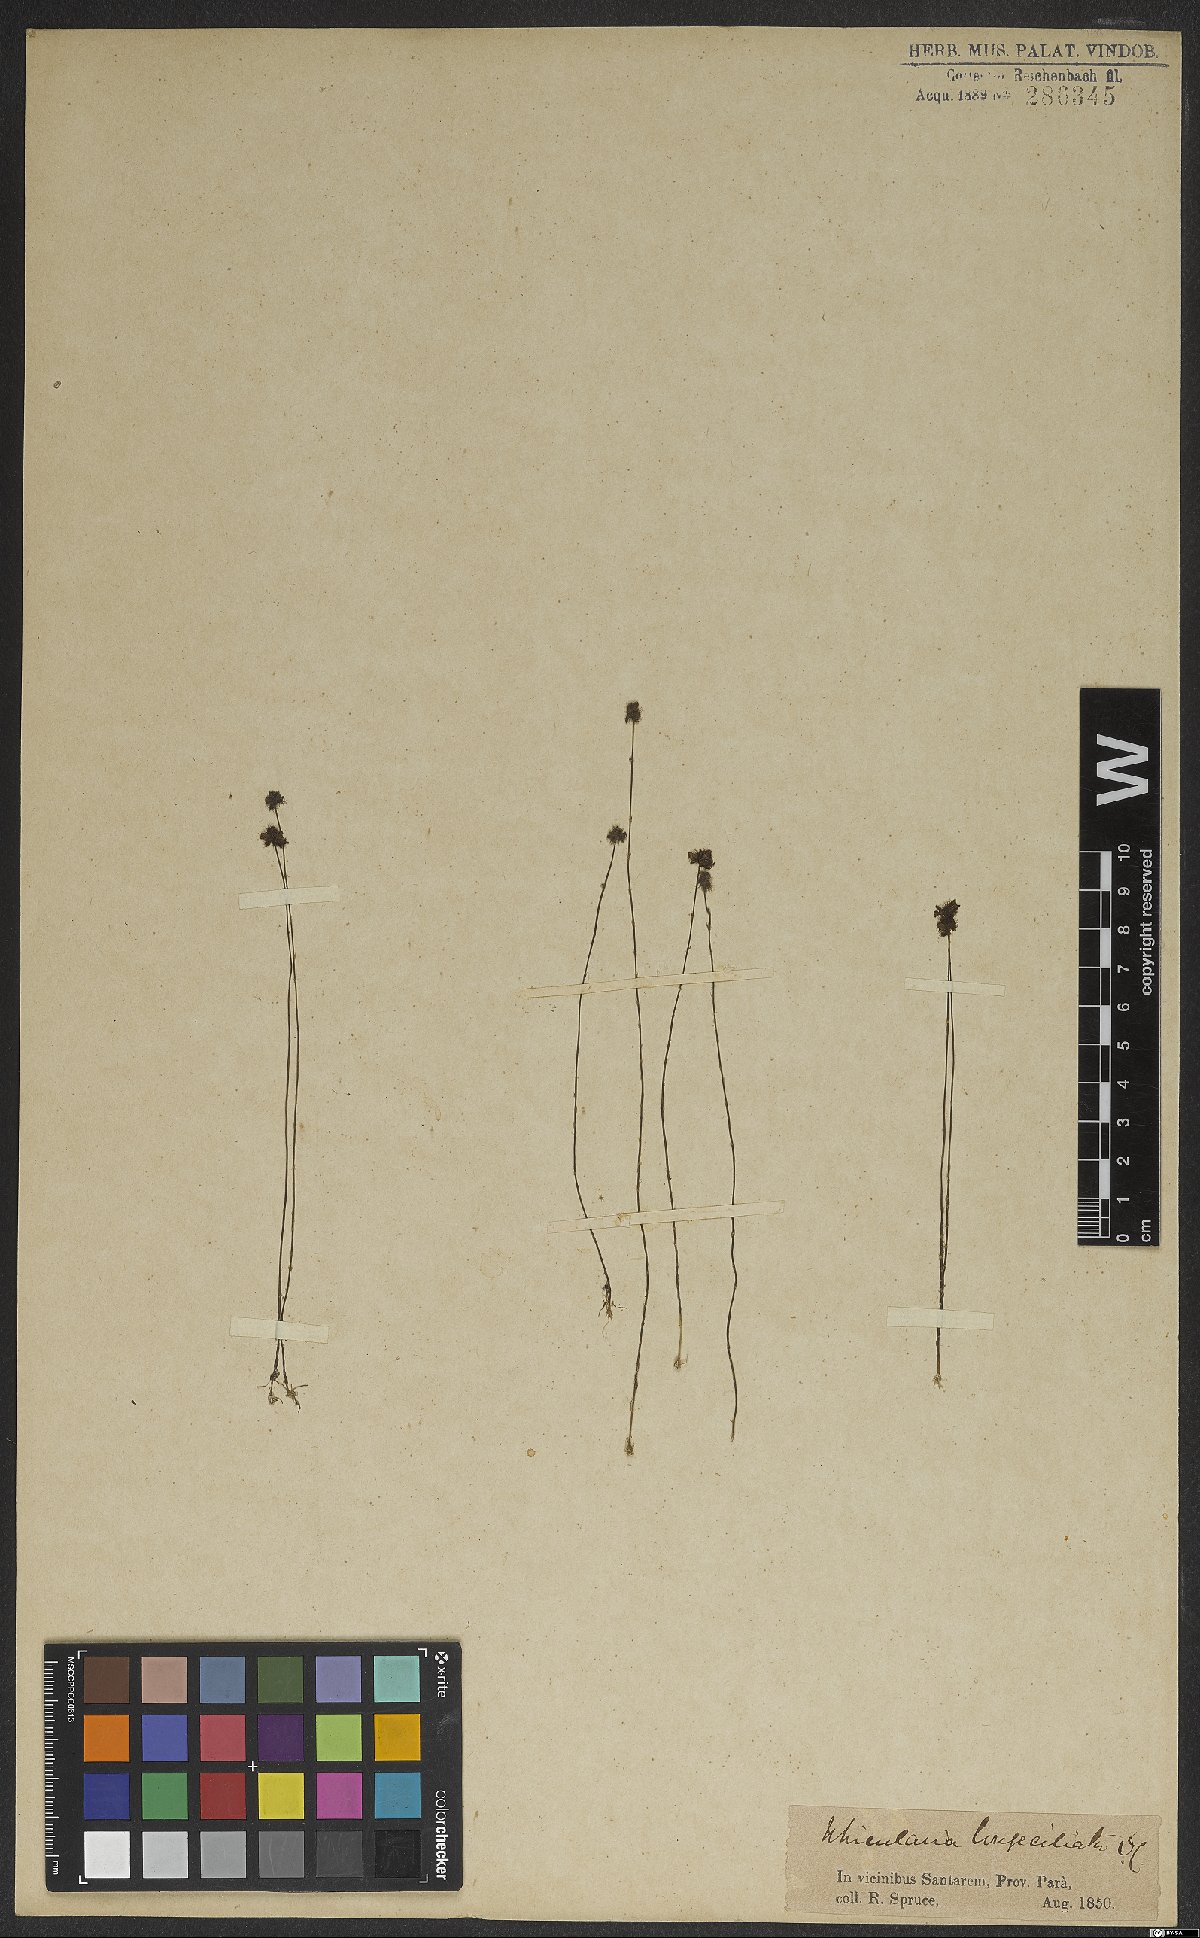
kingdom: Plantae
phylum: Tracheophyta
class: Magnoliopsida
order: Lamiales
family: Lentibulariaceae
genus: Utricularia
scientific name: Utricularia laciniata
